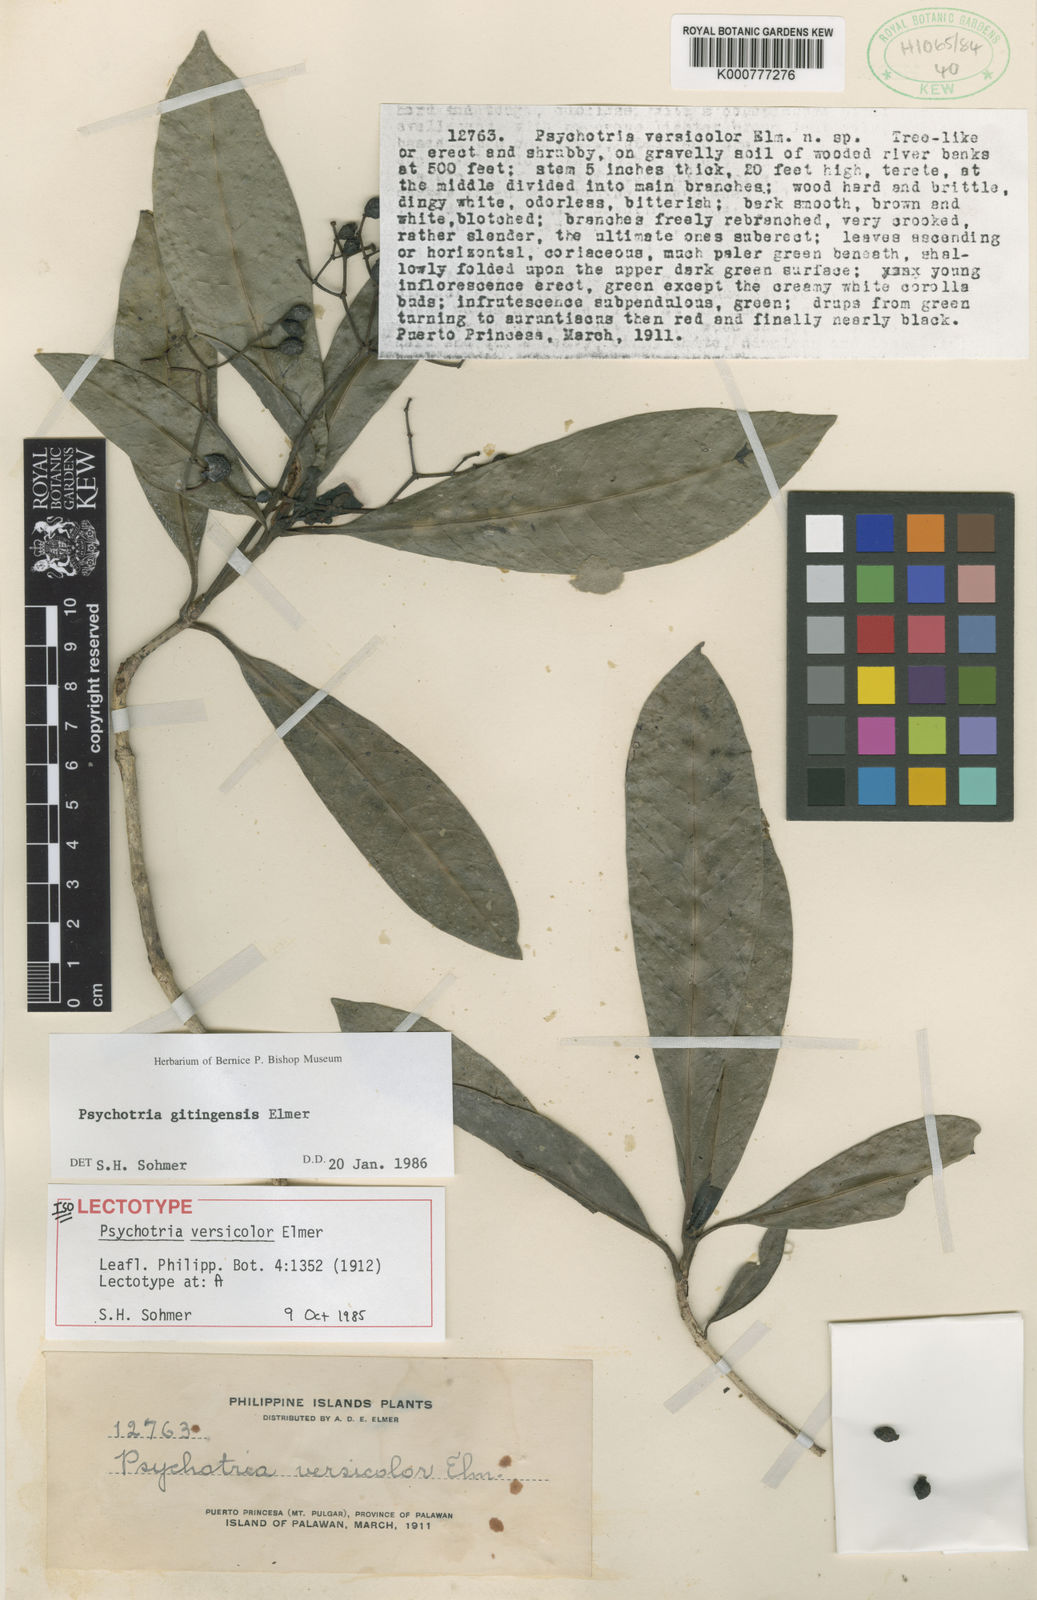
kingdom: Plantae
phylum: Tracheophyta
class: Magnoliopsida
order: Gentianales
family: Rubiaceae
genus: Psychotria
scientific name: Psychotria gitingensis
